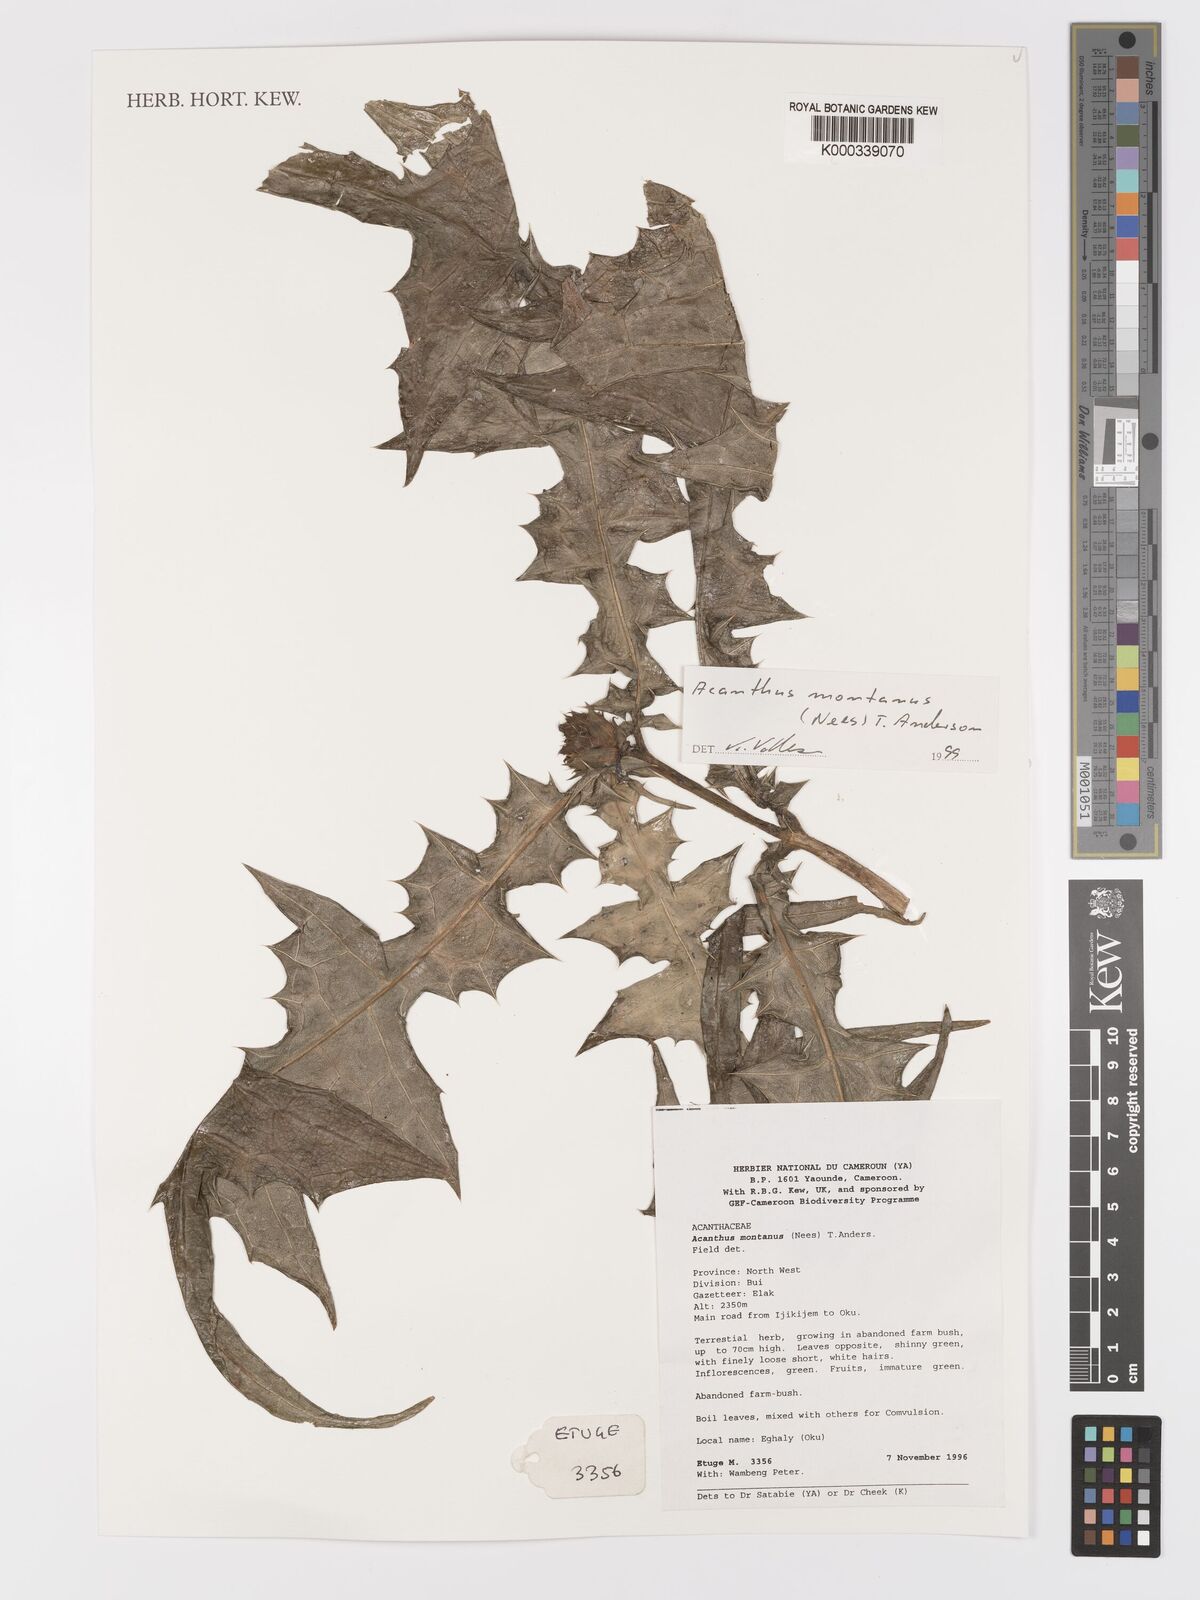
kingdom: Plantae
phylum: Tracheophyta
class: Magnoliopsida
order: Lamiales
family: Acanthaceae
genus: Acanthus
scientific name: Acanthus montanus
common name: Mountain thistle
